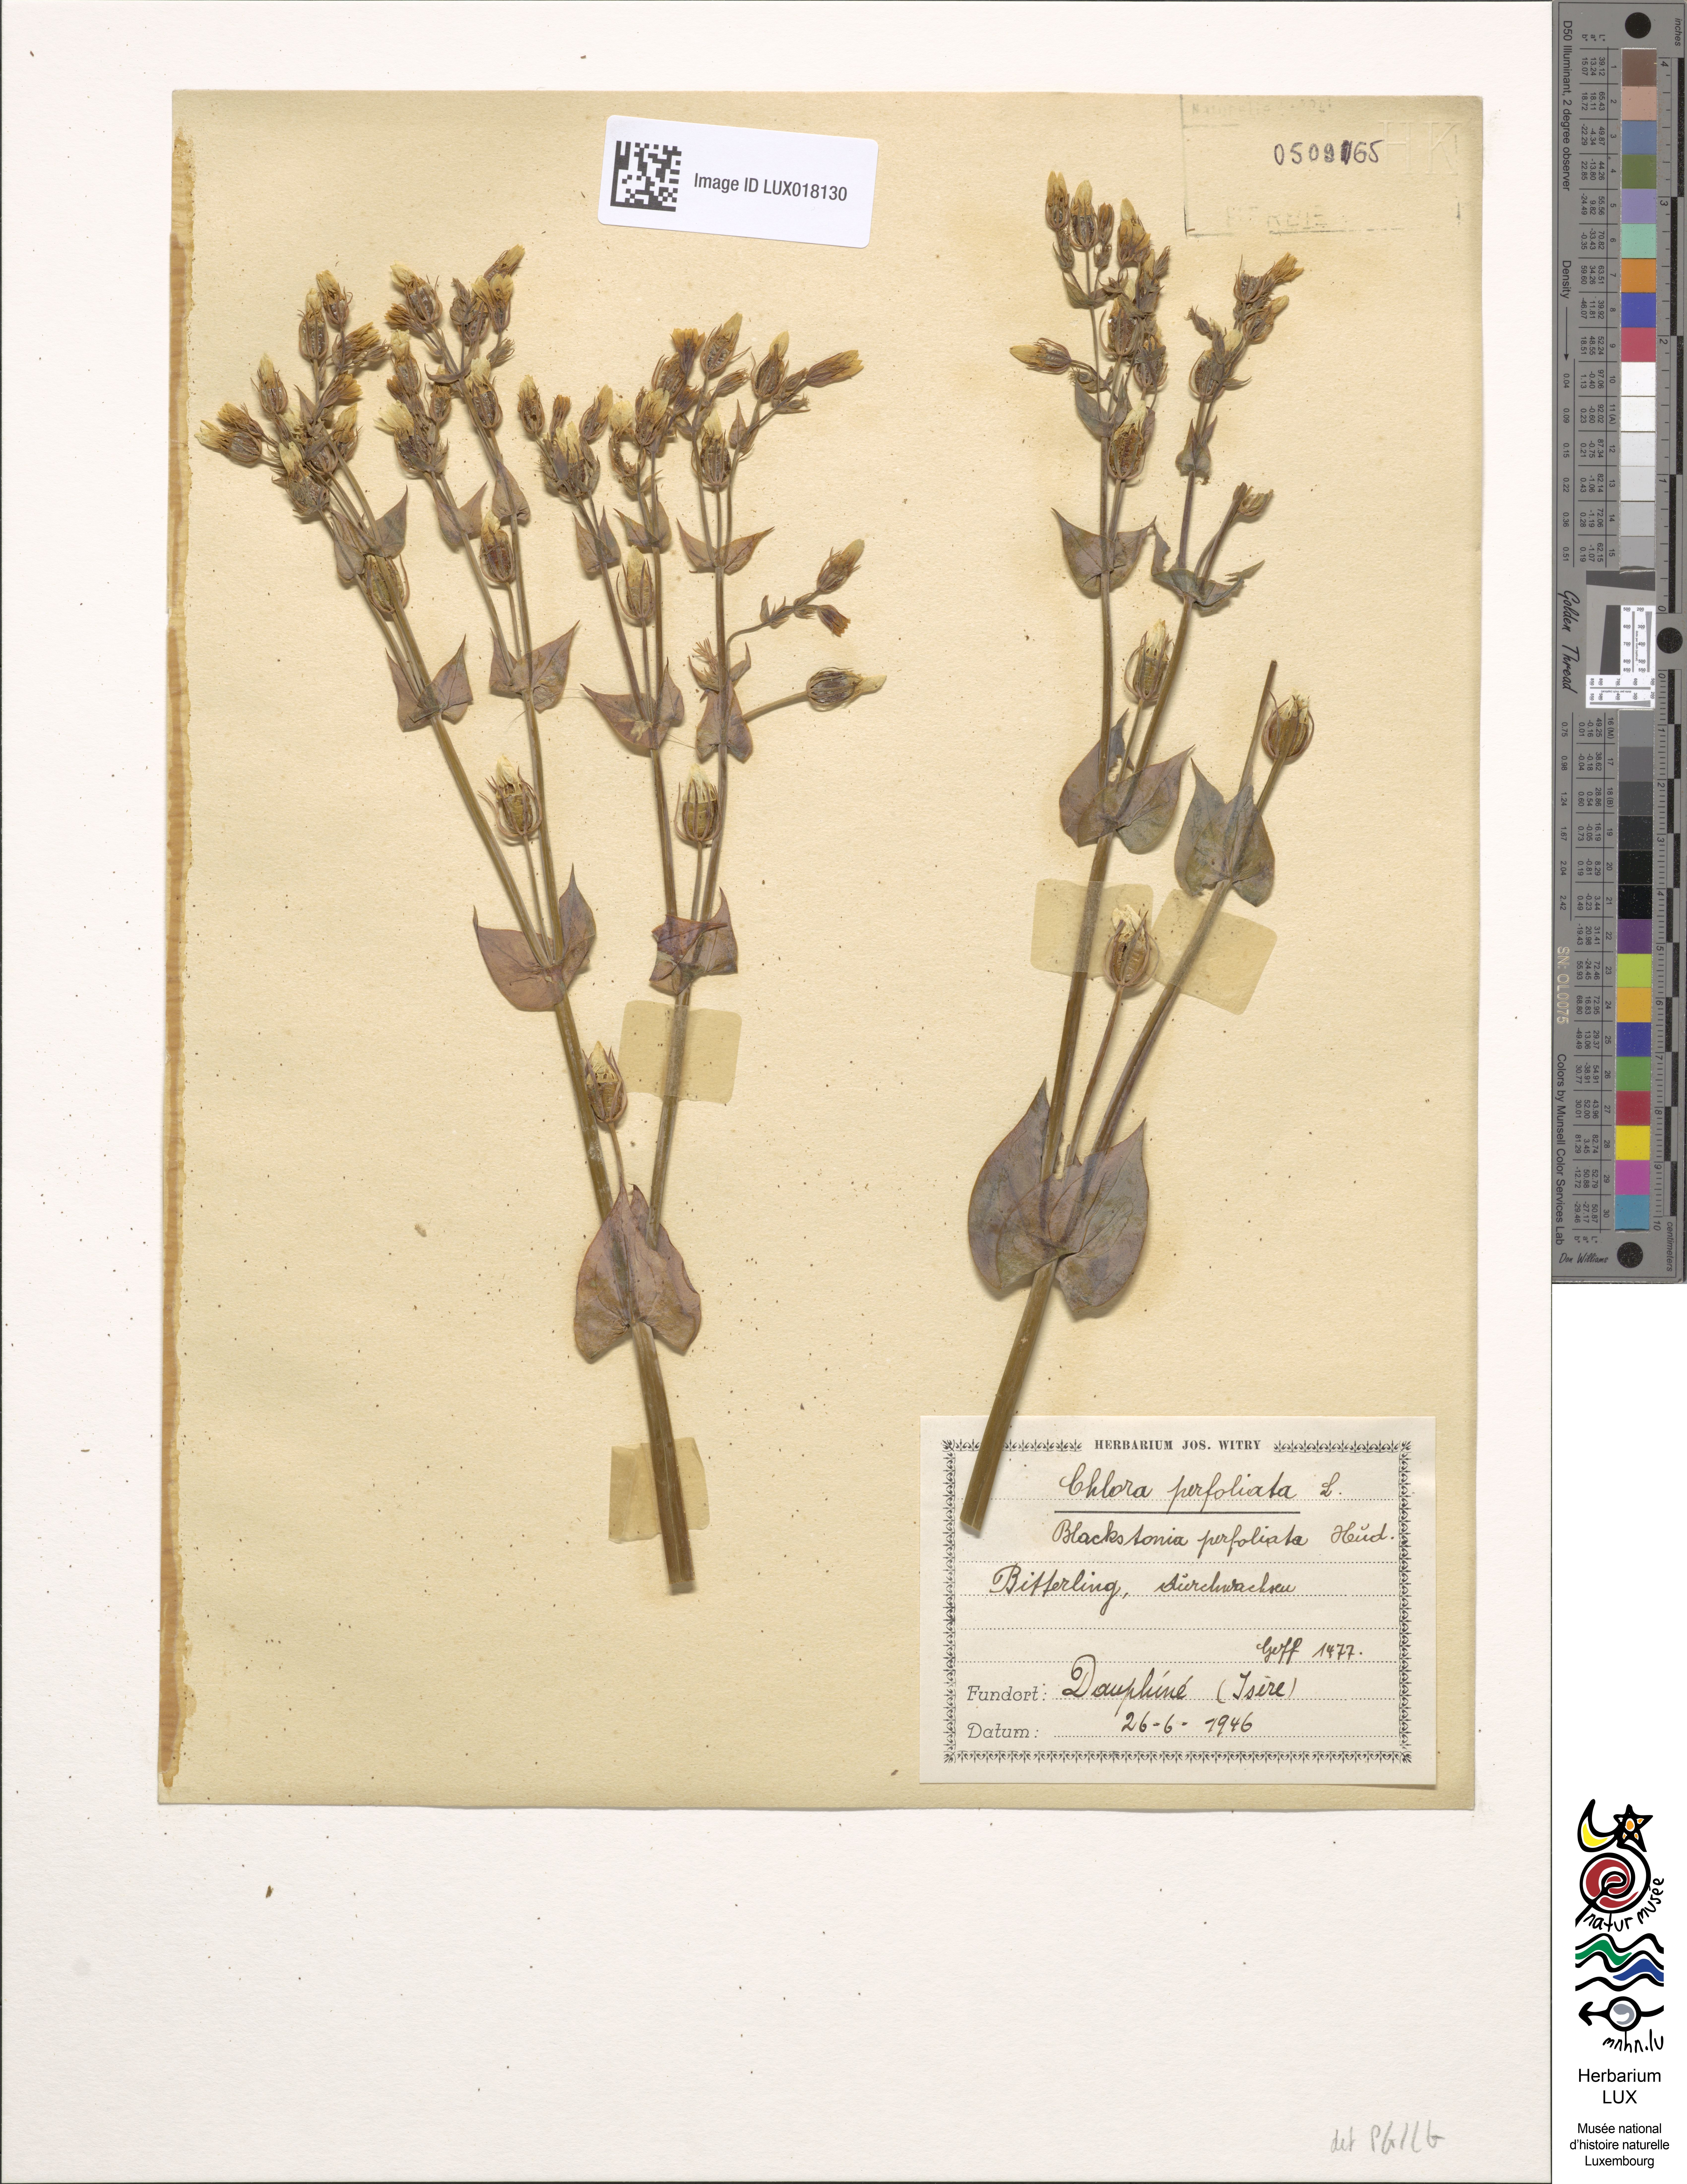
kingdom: Plantae
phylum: Tracheophyta
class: Magnoliopsida
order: Gentianales
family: Gentianaceae
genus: Blackstonia
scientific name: Blackstonia perfoliata
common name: Yellow-wort
